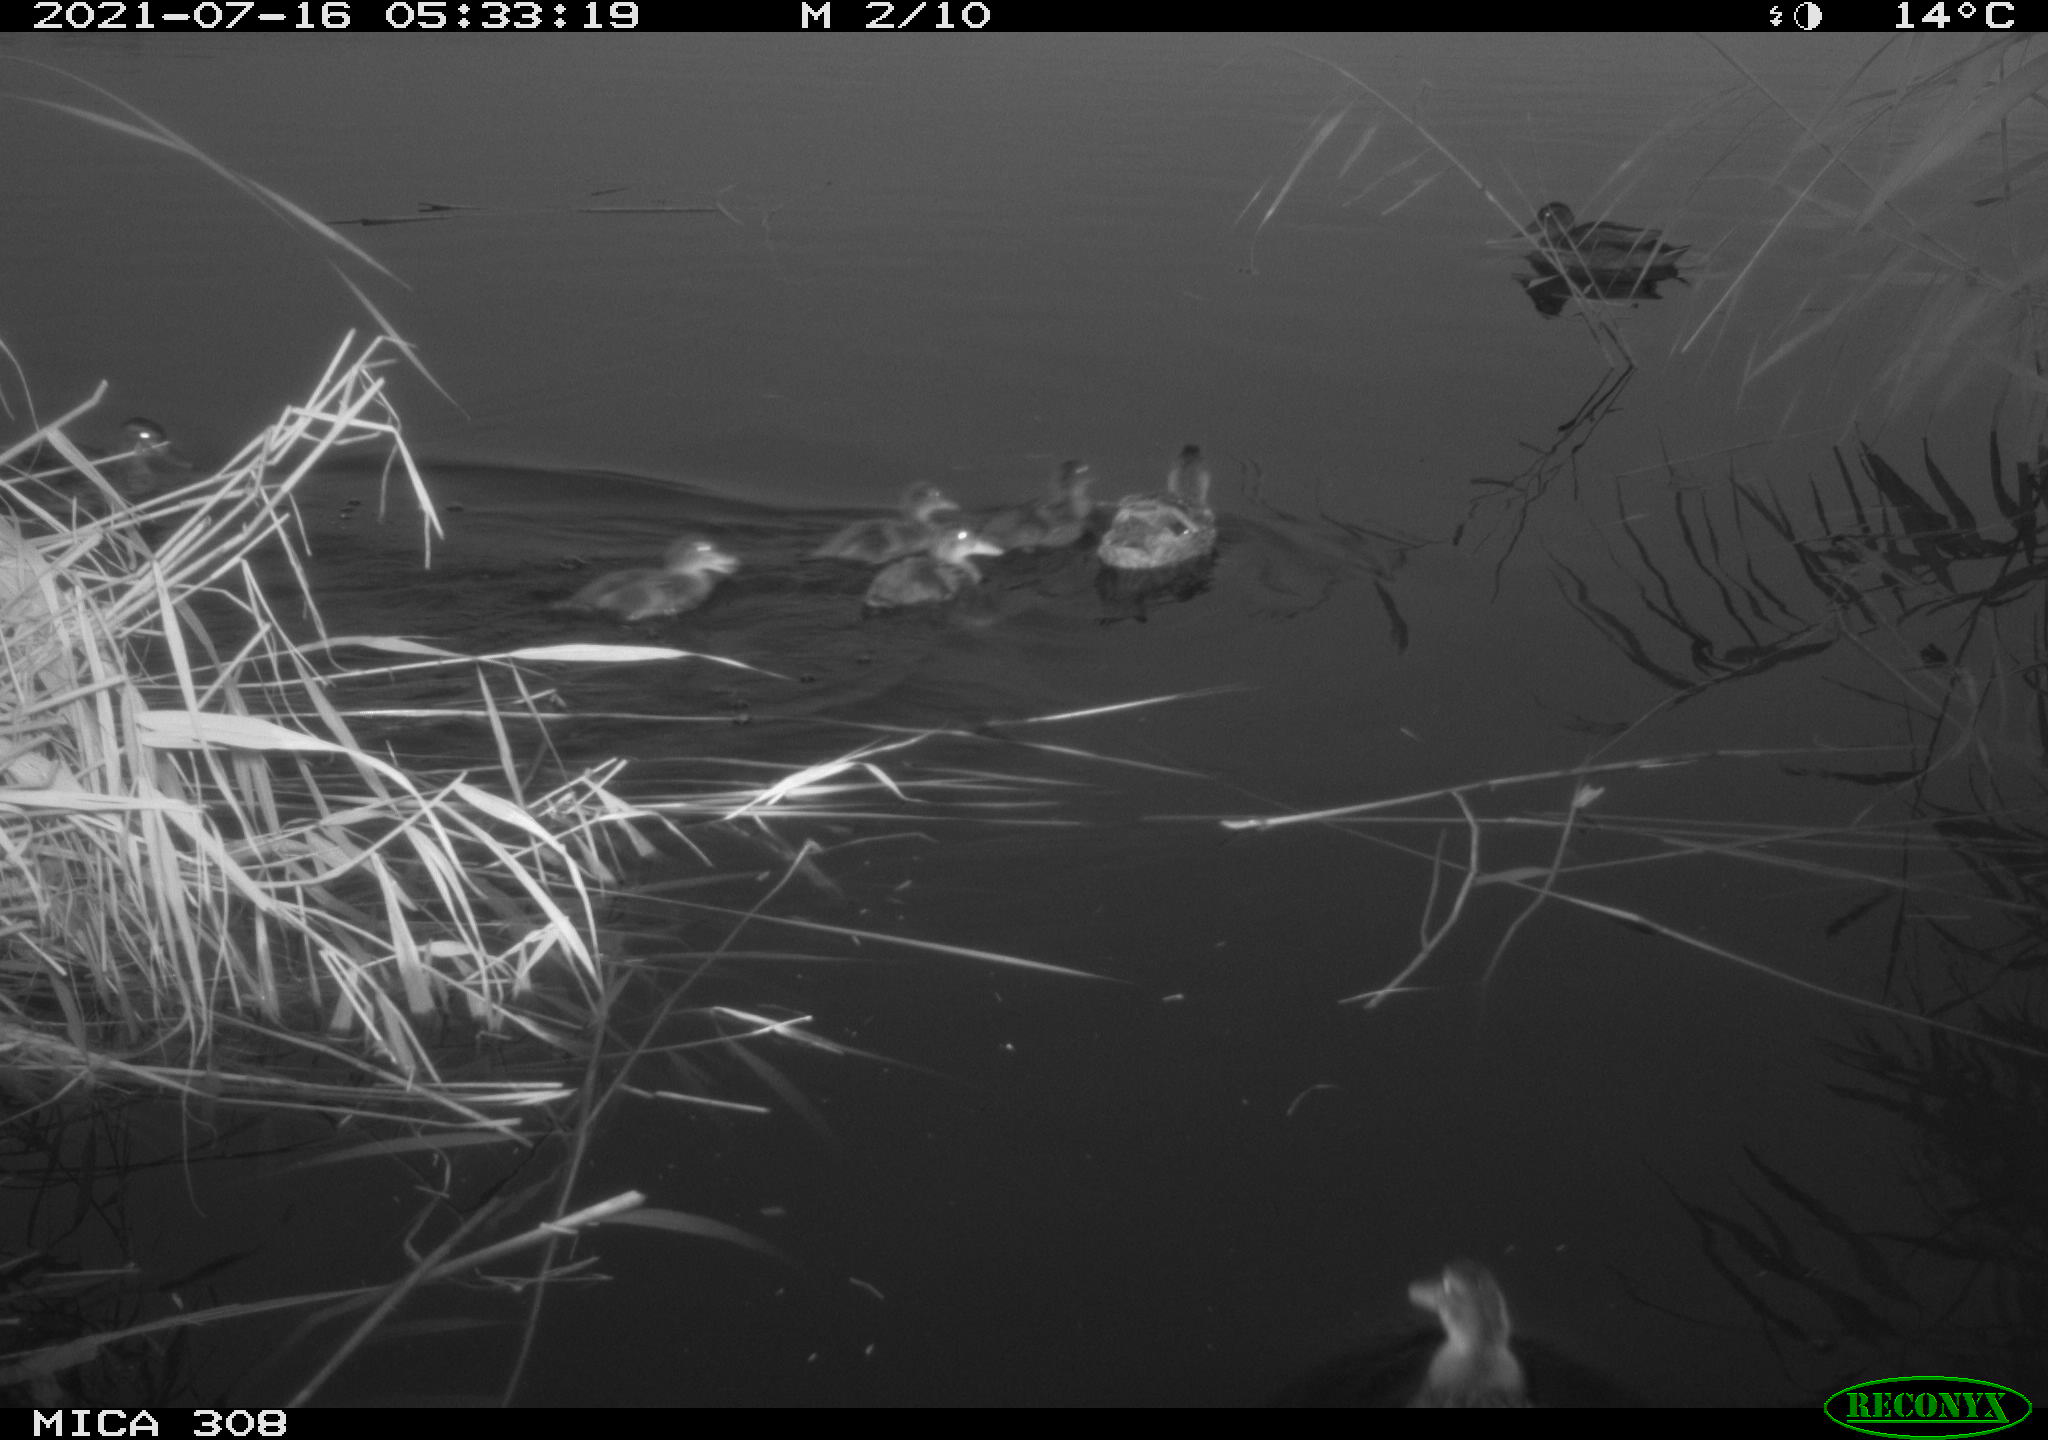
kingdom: Animalia
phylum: Chordata
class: Aves
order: Anseriformes
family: Anatidae
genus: Anas
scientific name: Anas platyrhynchos
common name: Mallard
